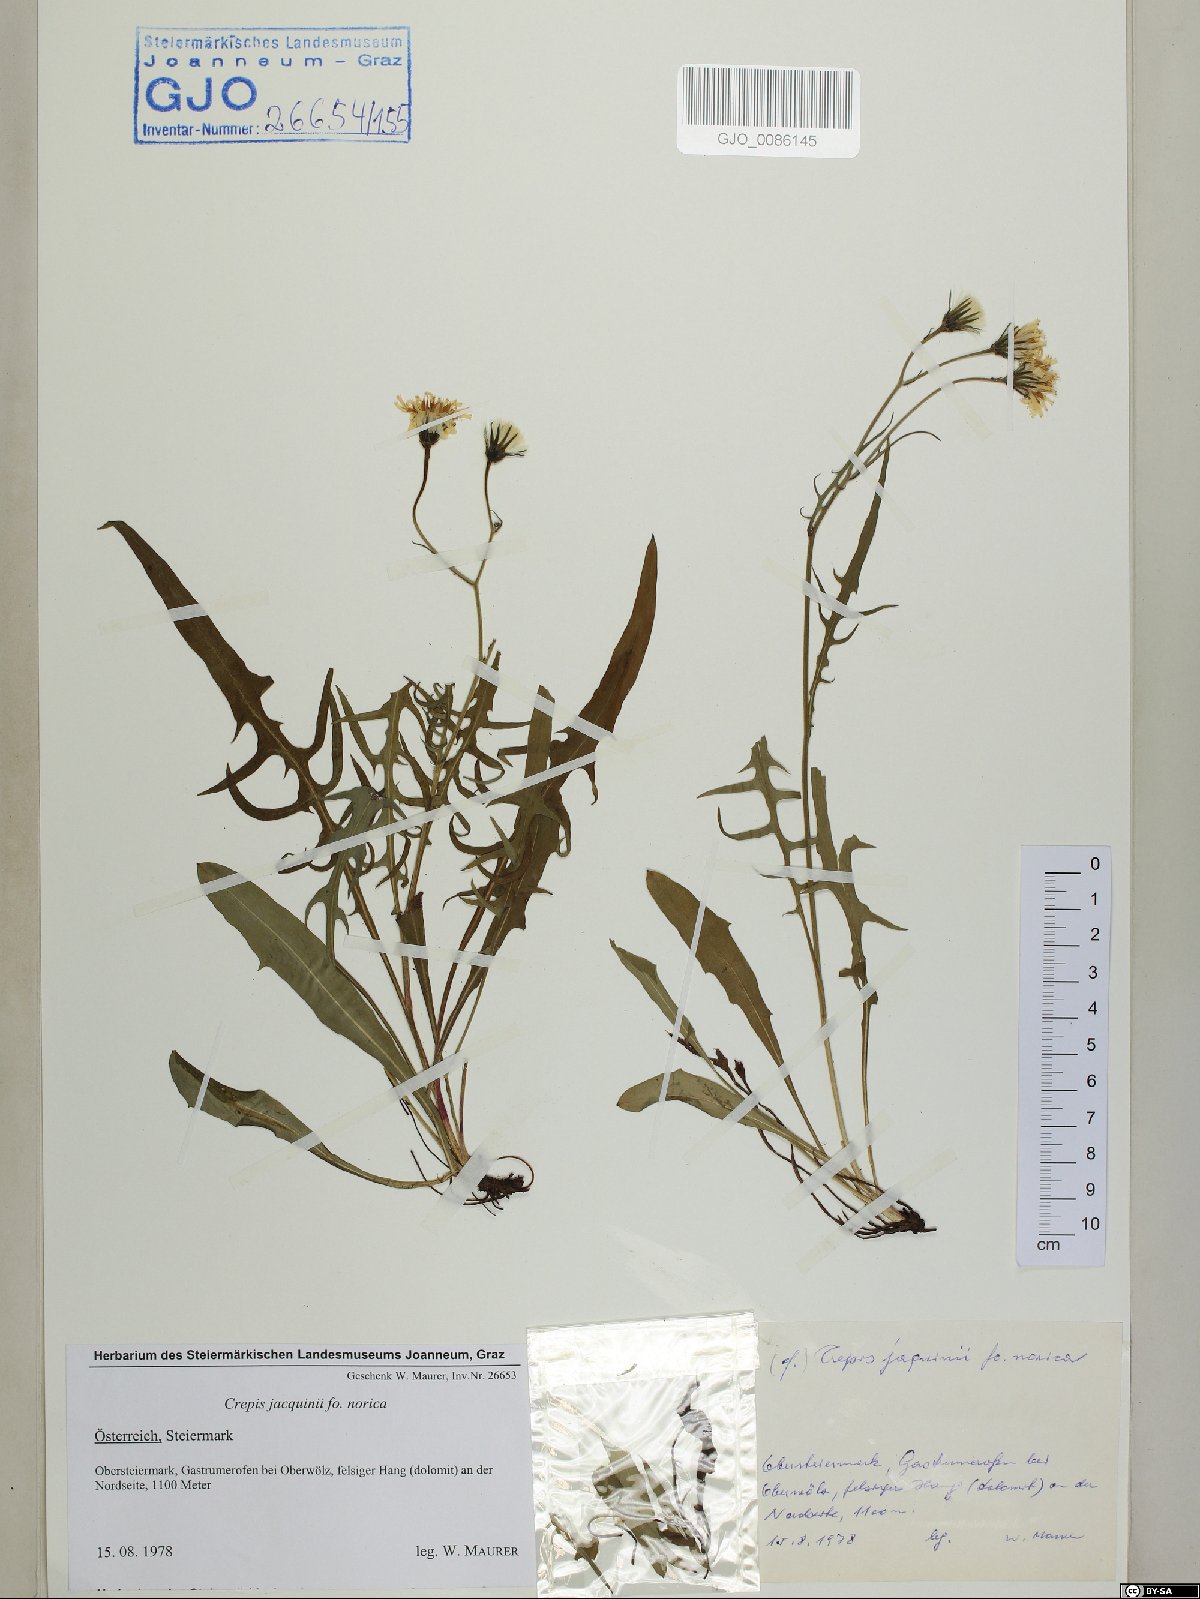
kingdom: Plantae
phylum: Tracheophyta
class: Magnoliopsida
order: Asterales
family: Asteraceae
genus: Crepis
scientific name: Crepis jacquinii
